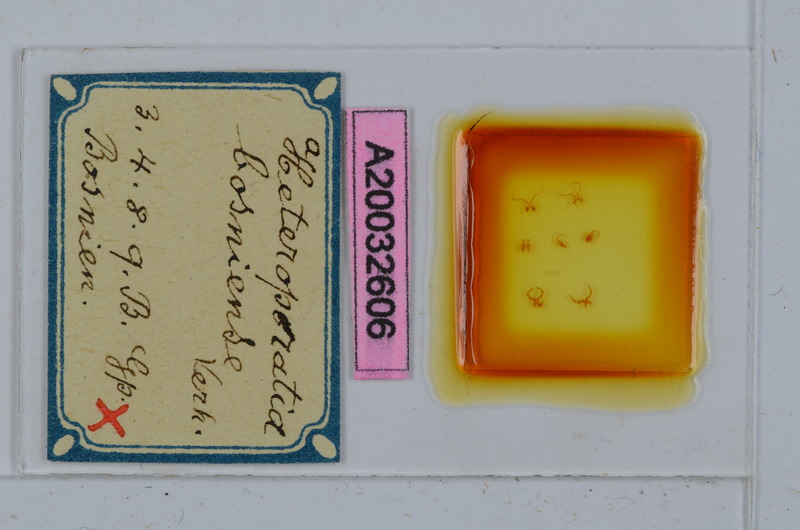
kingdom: Animalia
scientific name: Animalia
